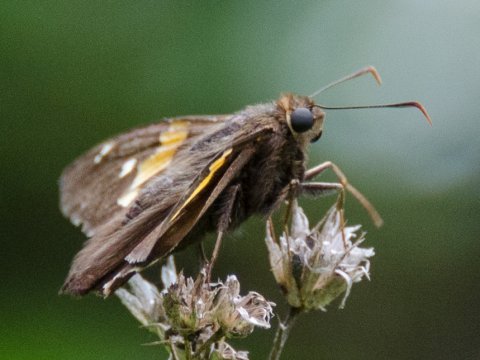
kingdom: Animalia
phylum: Arthropoda
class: Insecta
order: Lepidoptera
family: Hesperiidae
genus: Epargyreus
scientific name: Epargyreus clarus
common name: Silver-spotted Skipper
